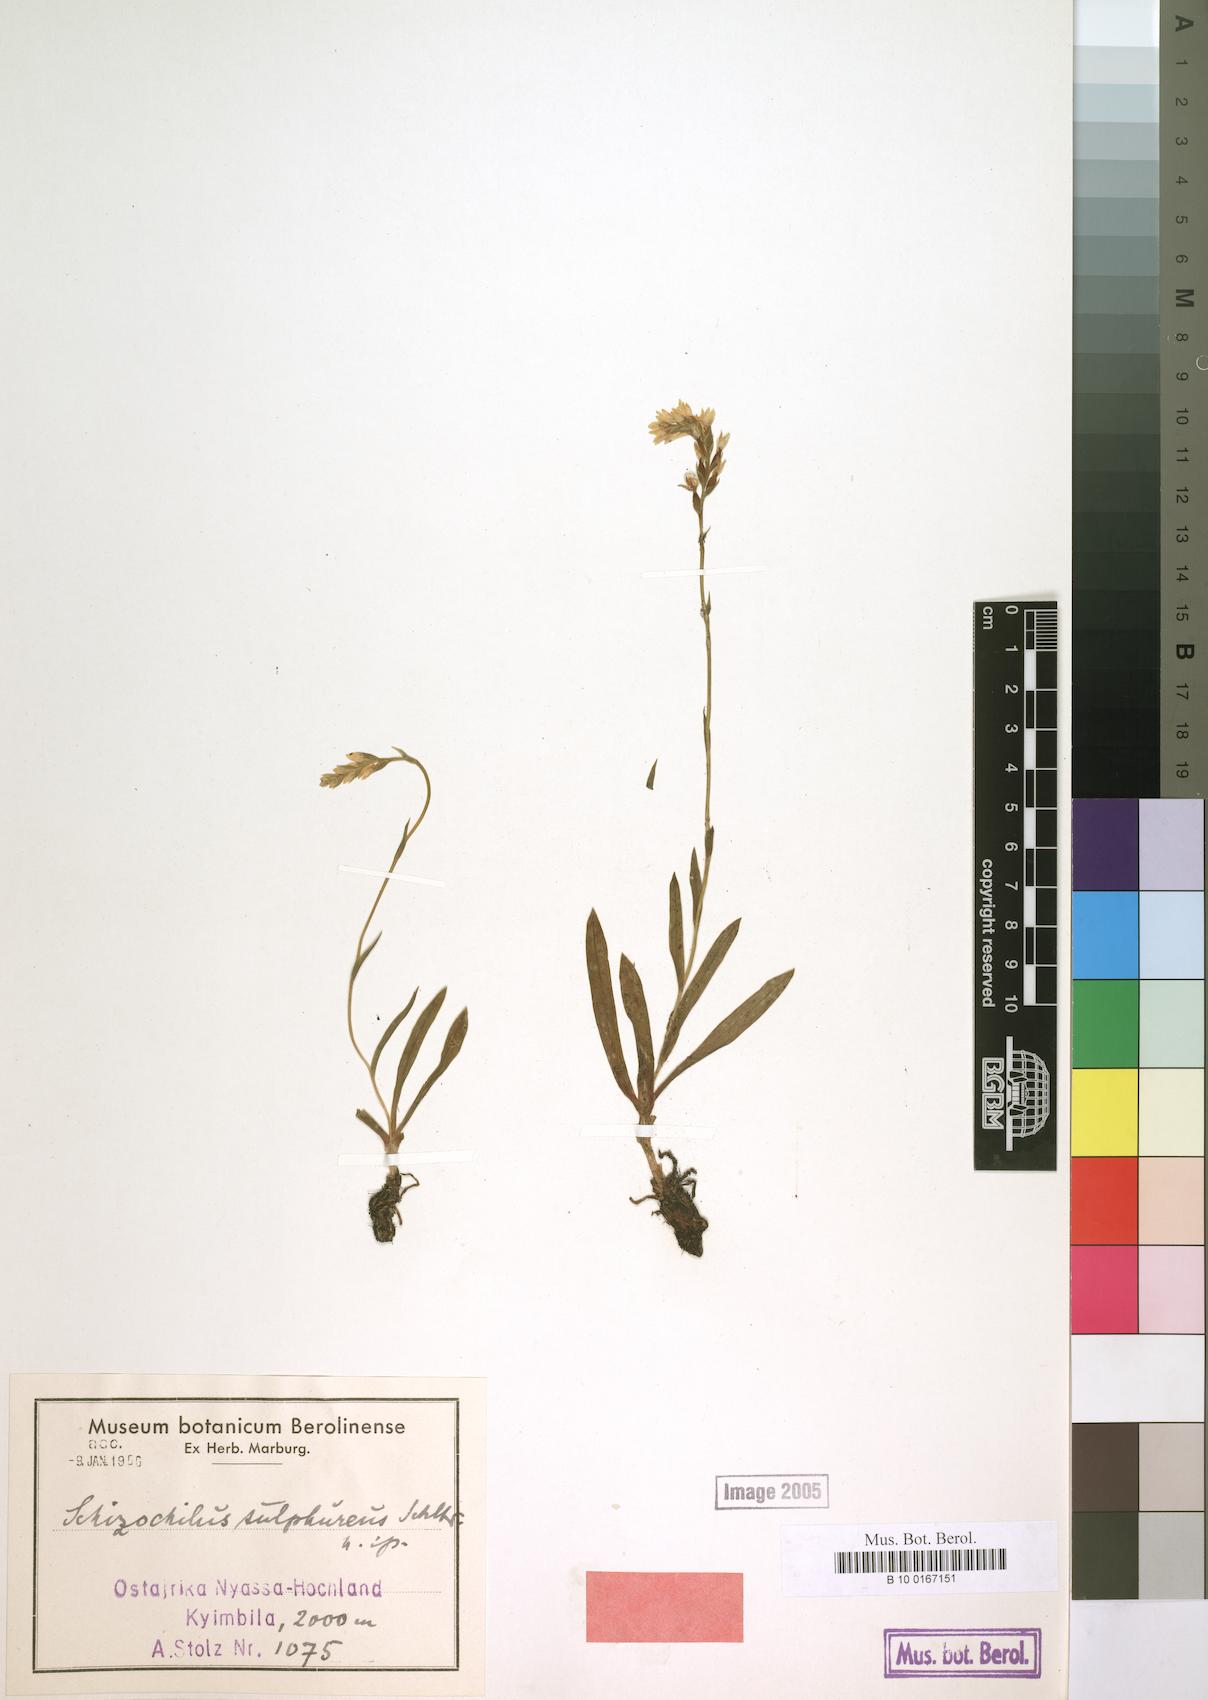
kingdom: Plantae
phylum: Tracheophyta
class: Liliopsida
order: Asparagales
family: Orchidaceae
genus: Schizochilus
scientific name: Schizochilus sulphureus
